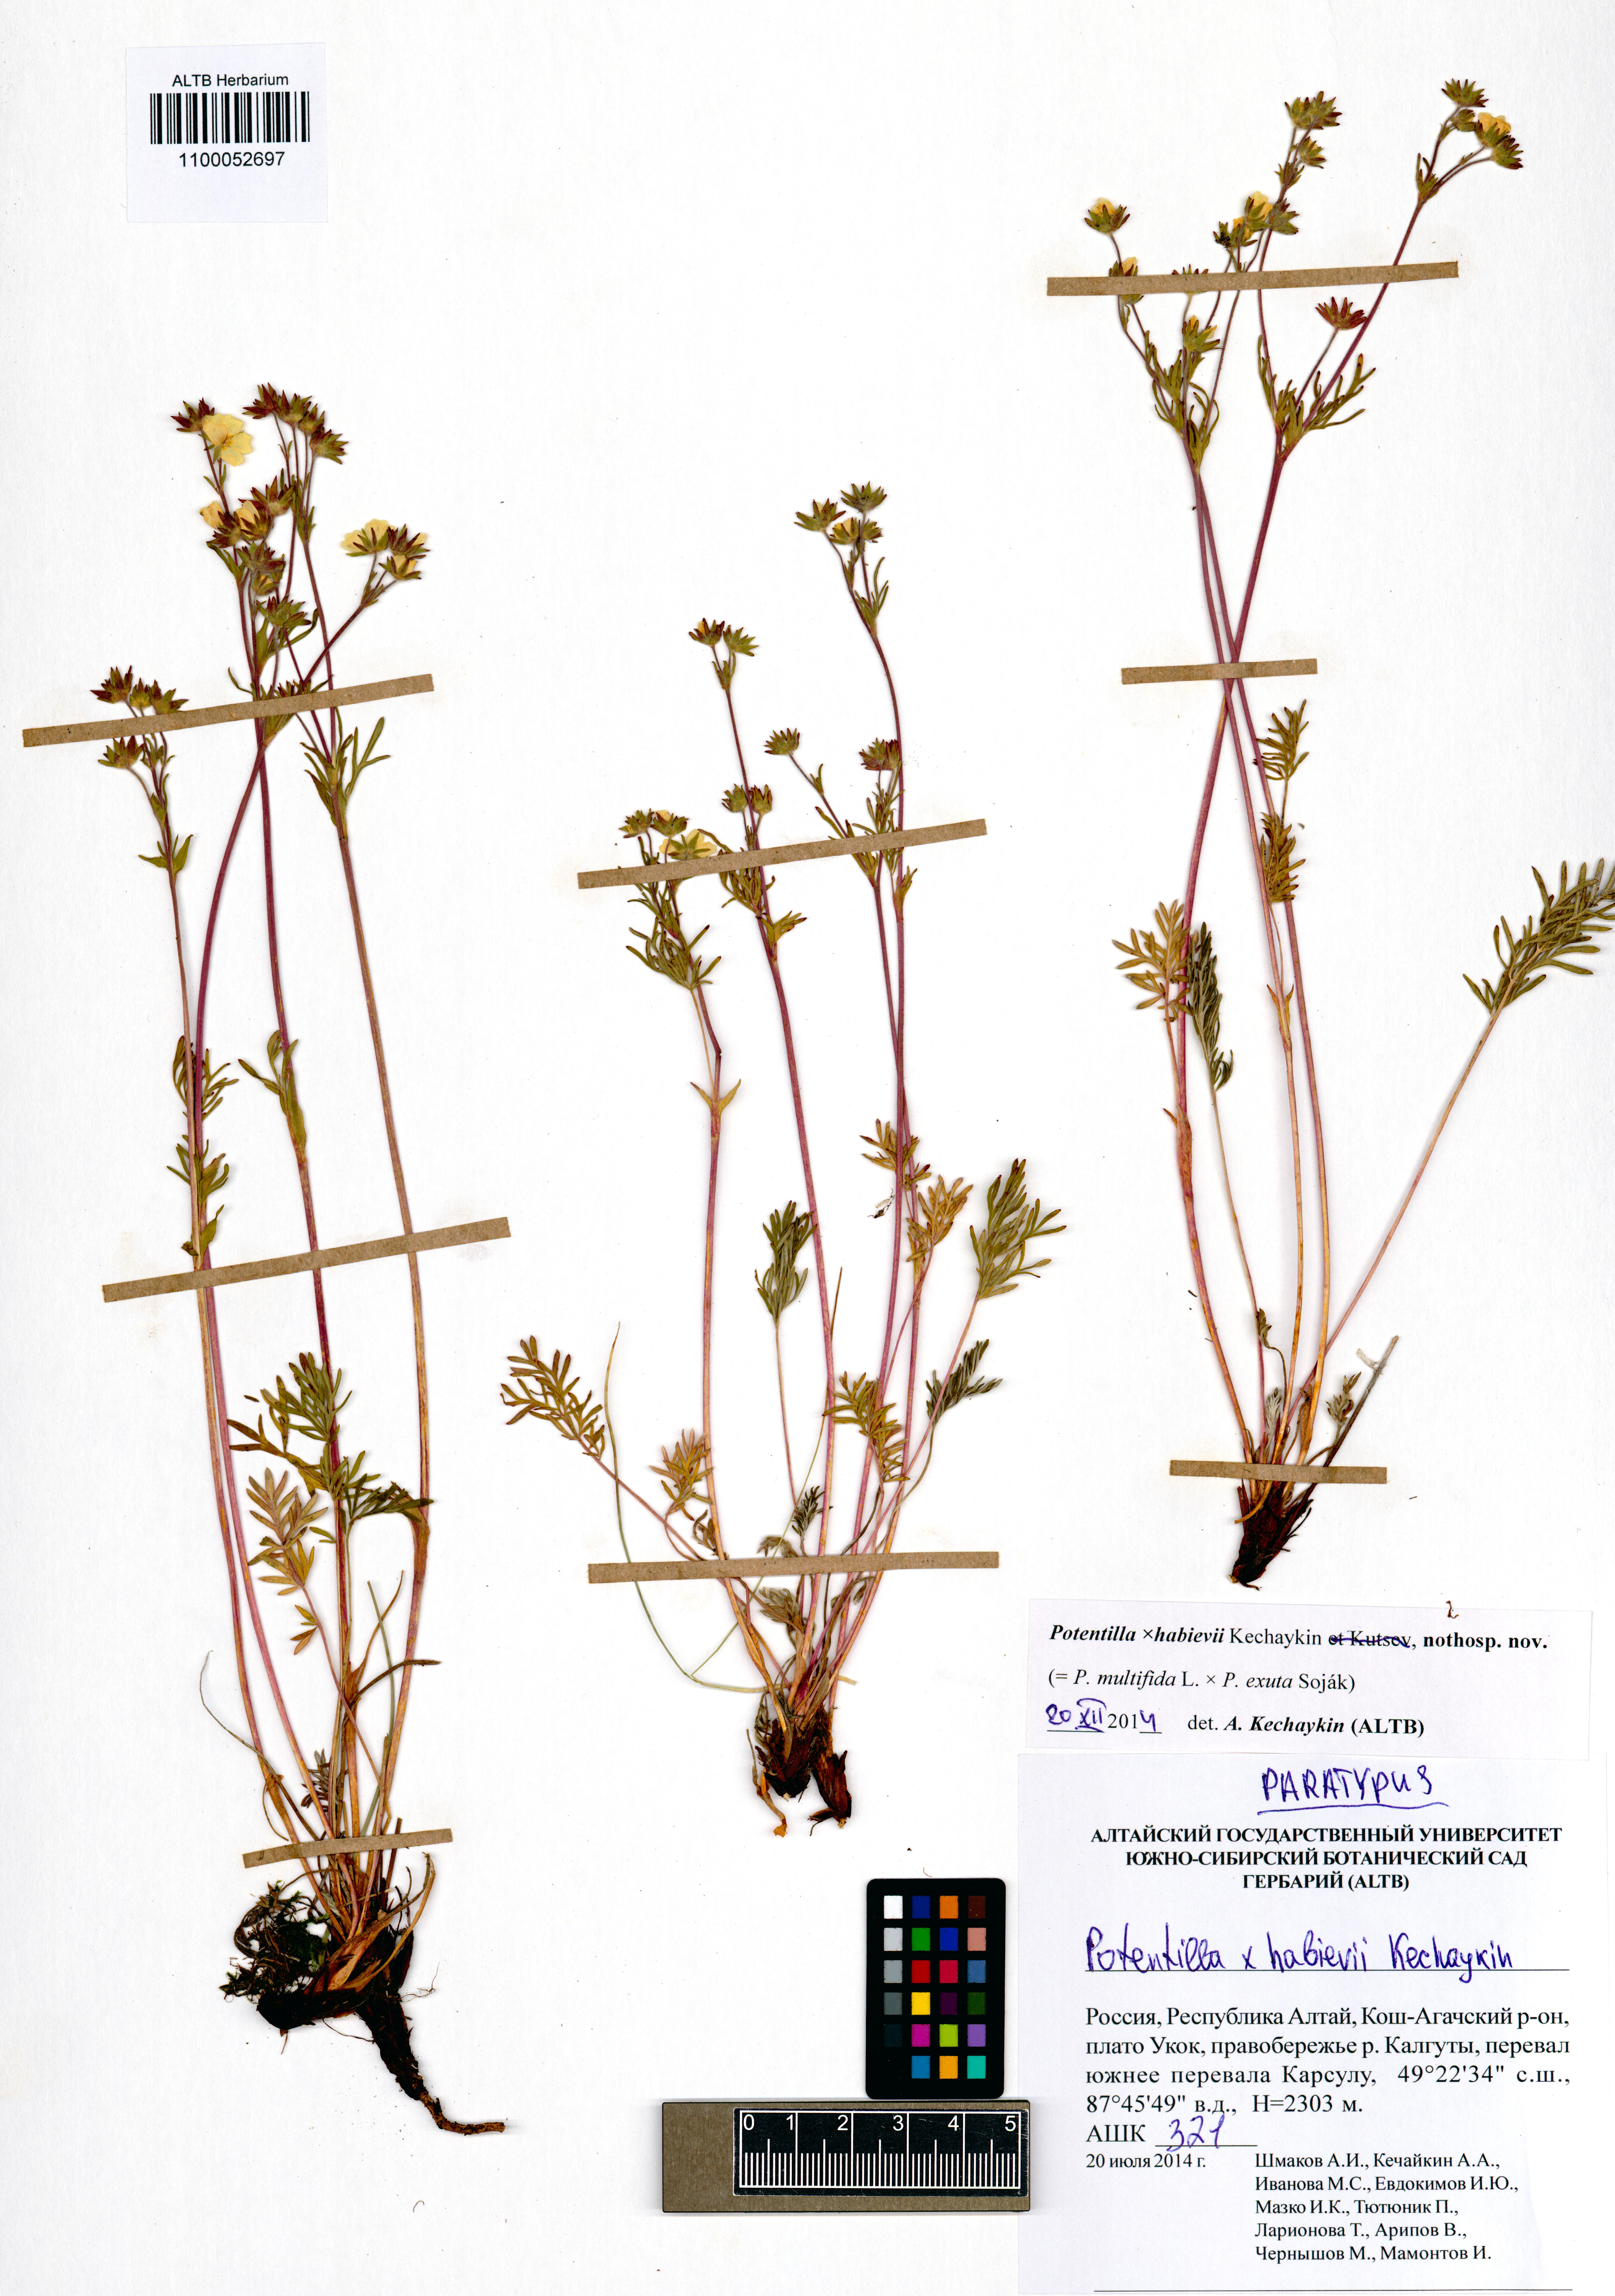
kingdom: Plantae
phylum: Tracheophyta
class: Magnoliopsida
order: Rosales
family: Rosaceae
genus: Potentilla
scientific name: Potentilla habievii
